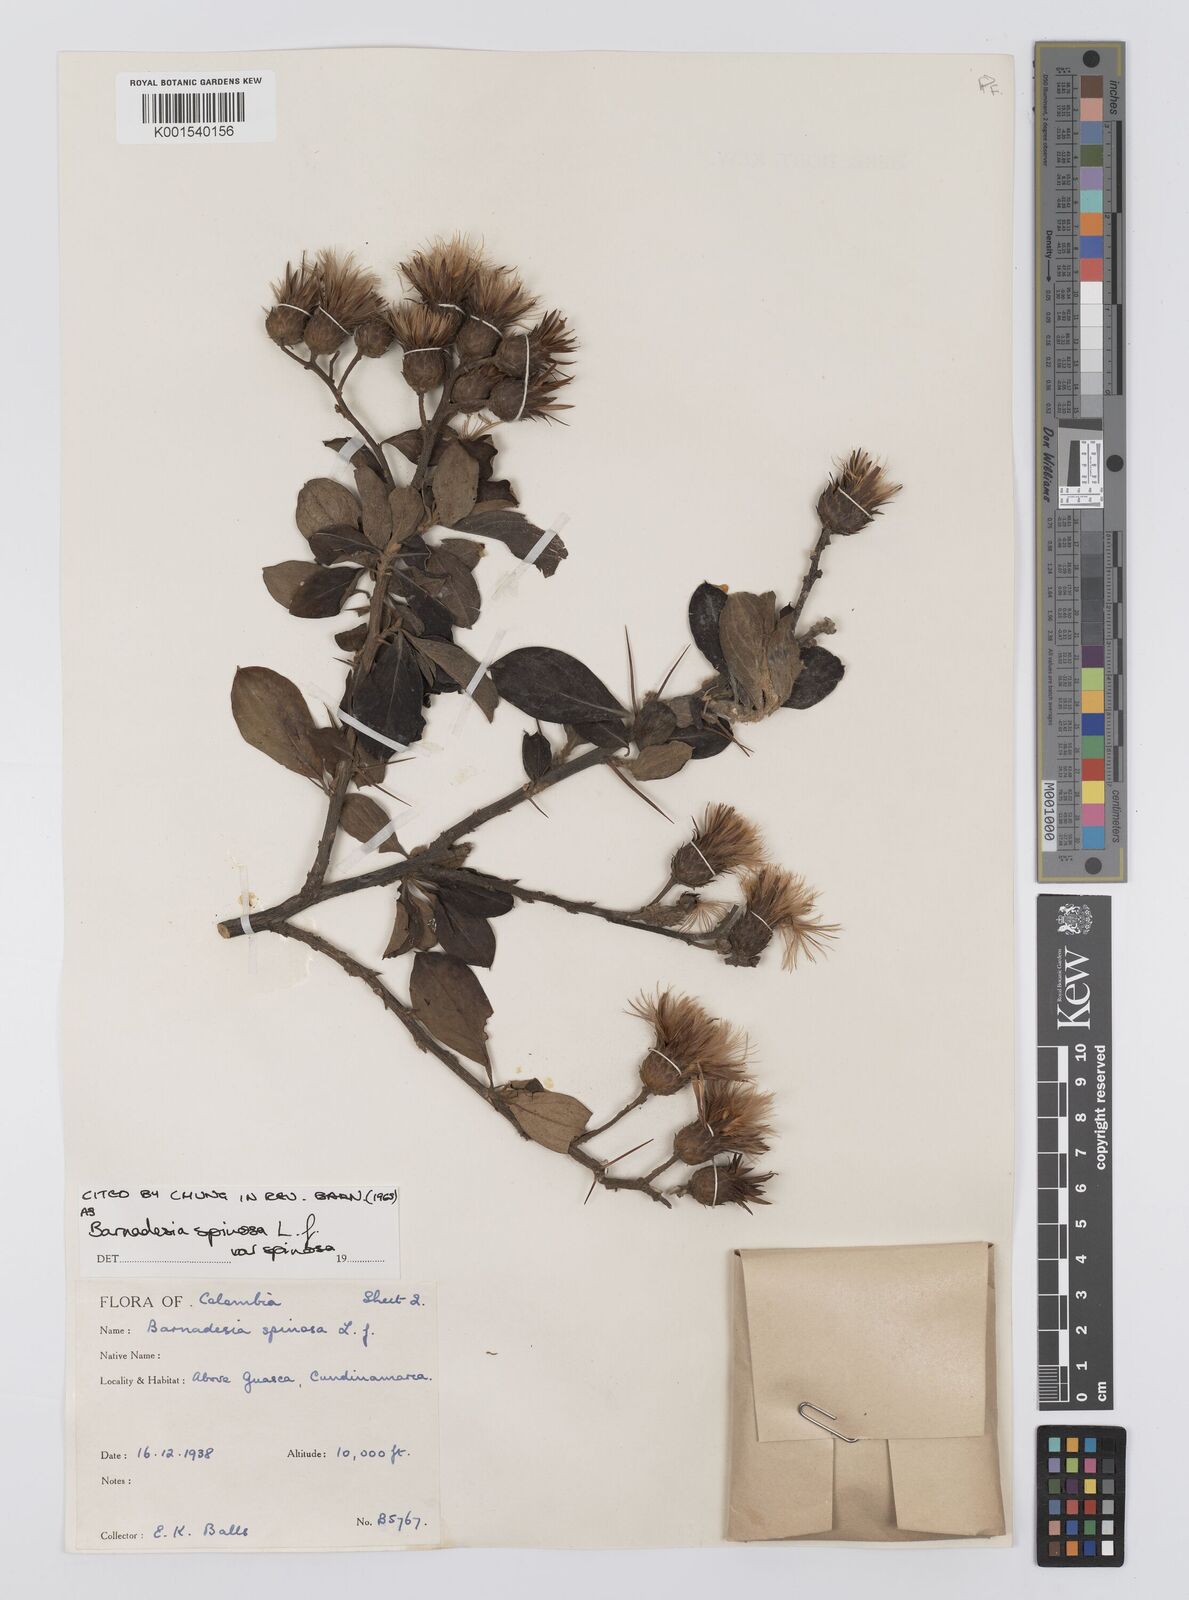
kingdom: Plantae
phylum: Tracheophyta
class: Magnoliopsida
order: Asterales
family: Asteraceae
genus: Barnadesia
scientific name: Barnadesia spinosa
